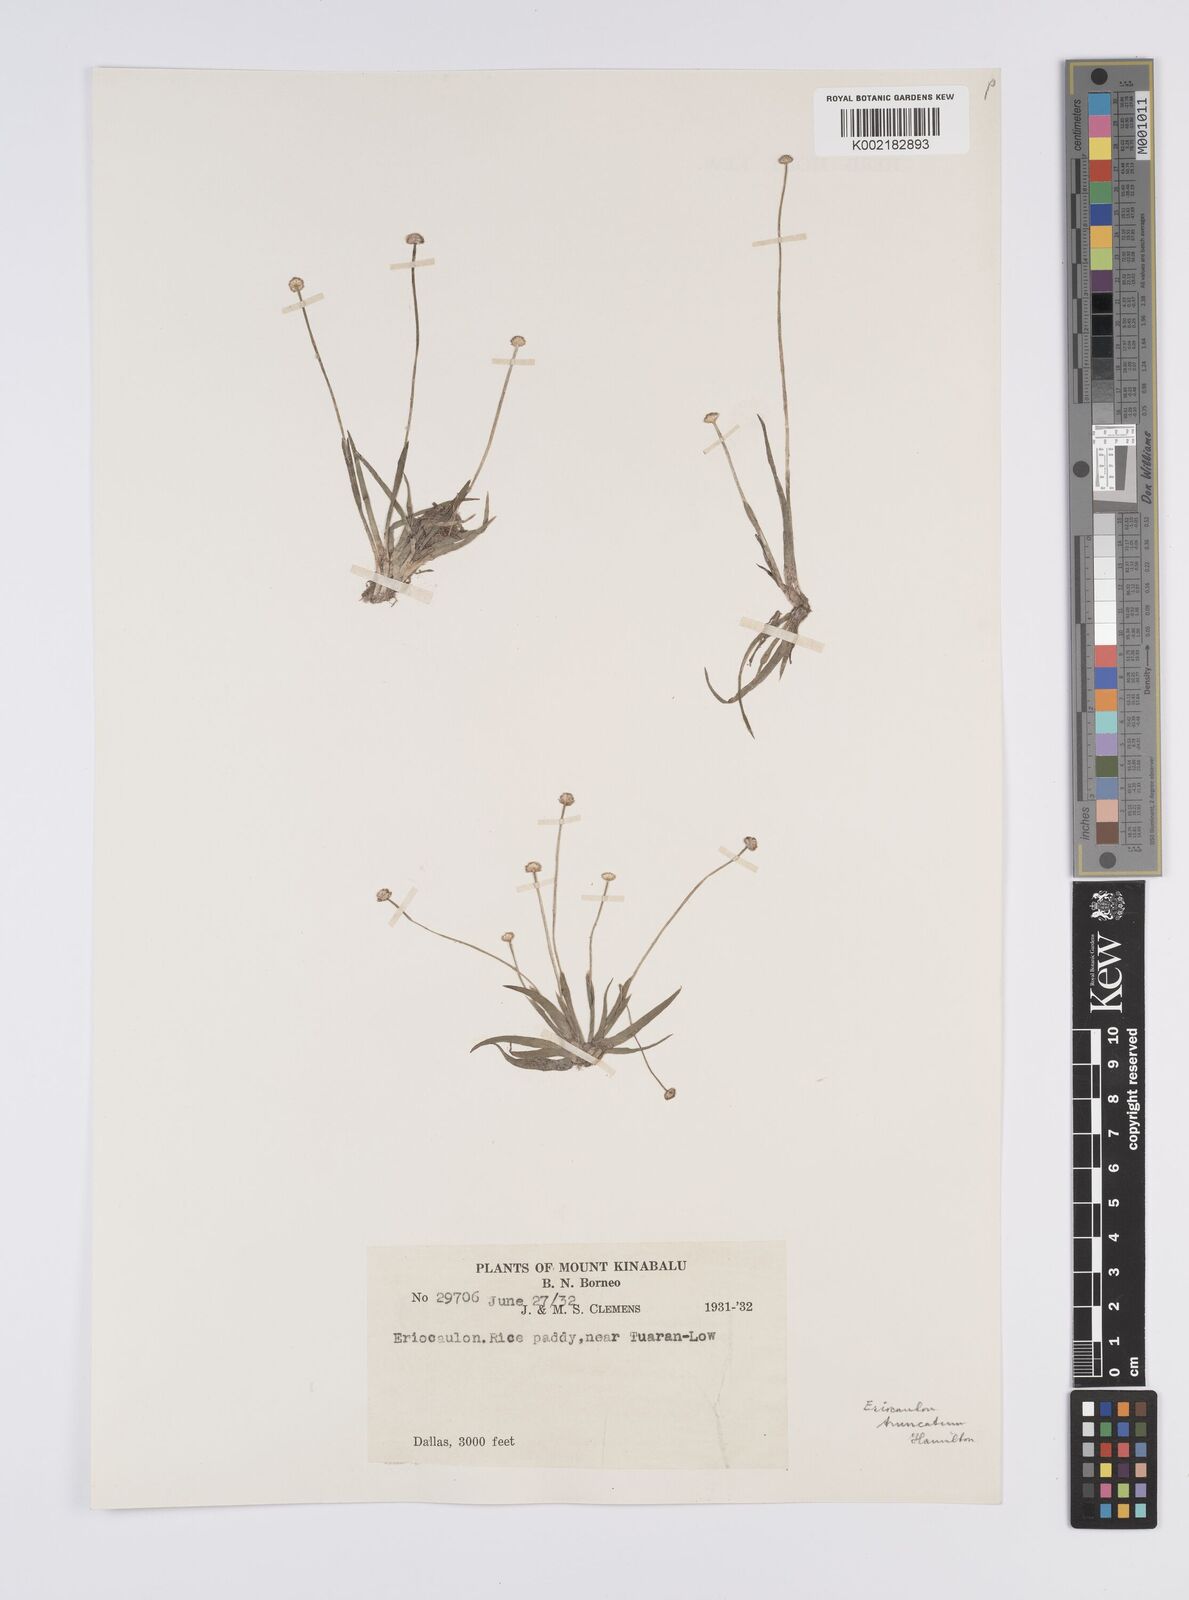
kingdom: Plantae
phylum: Tracheophyta
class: Liliopsida
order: Poales
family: Eriocaulaceae
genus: Eriocaulon
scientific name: Eriocaulon
